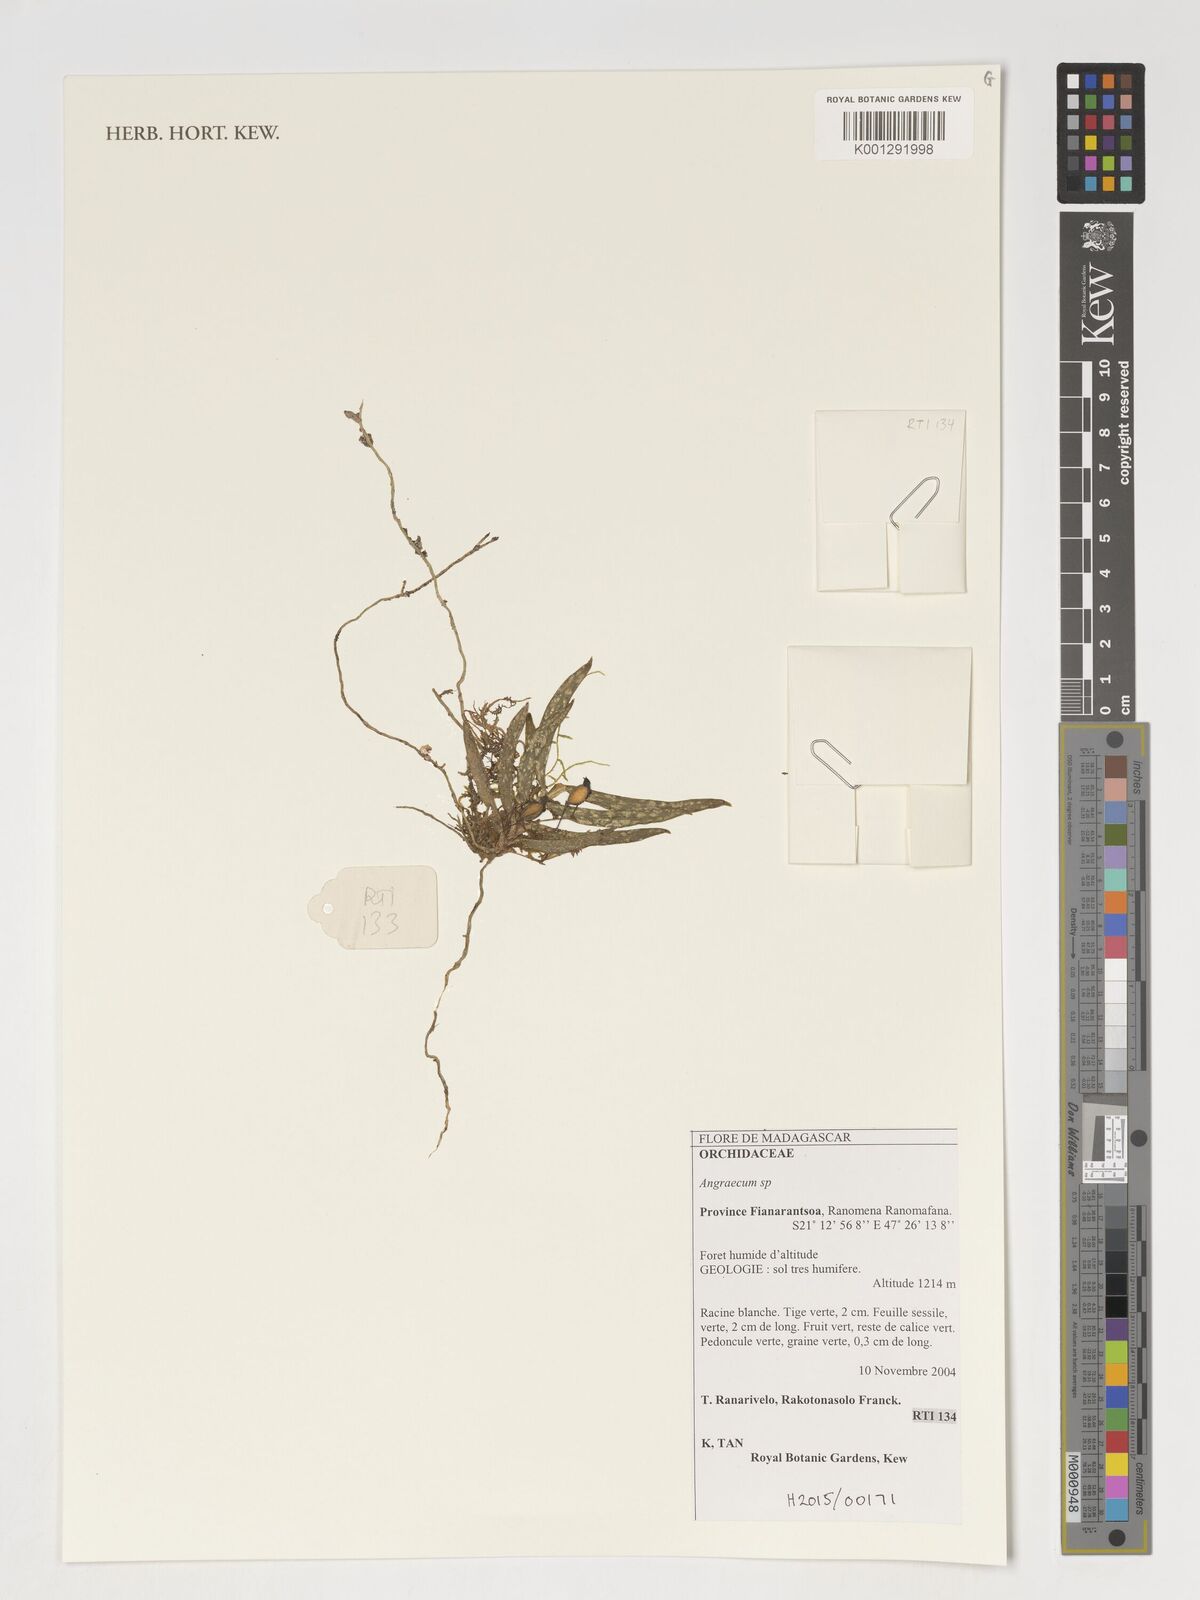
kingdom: Plantae
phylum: Tracheophyta
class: Liliopsida
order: Asparagales
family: Orchidaceae
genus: Angraecum
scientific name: Angraecum
